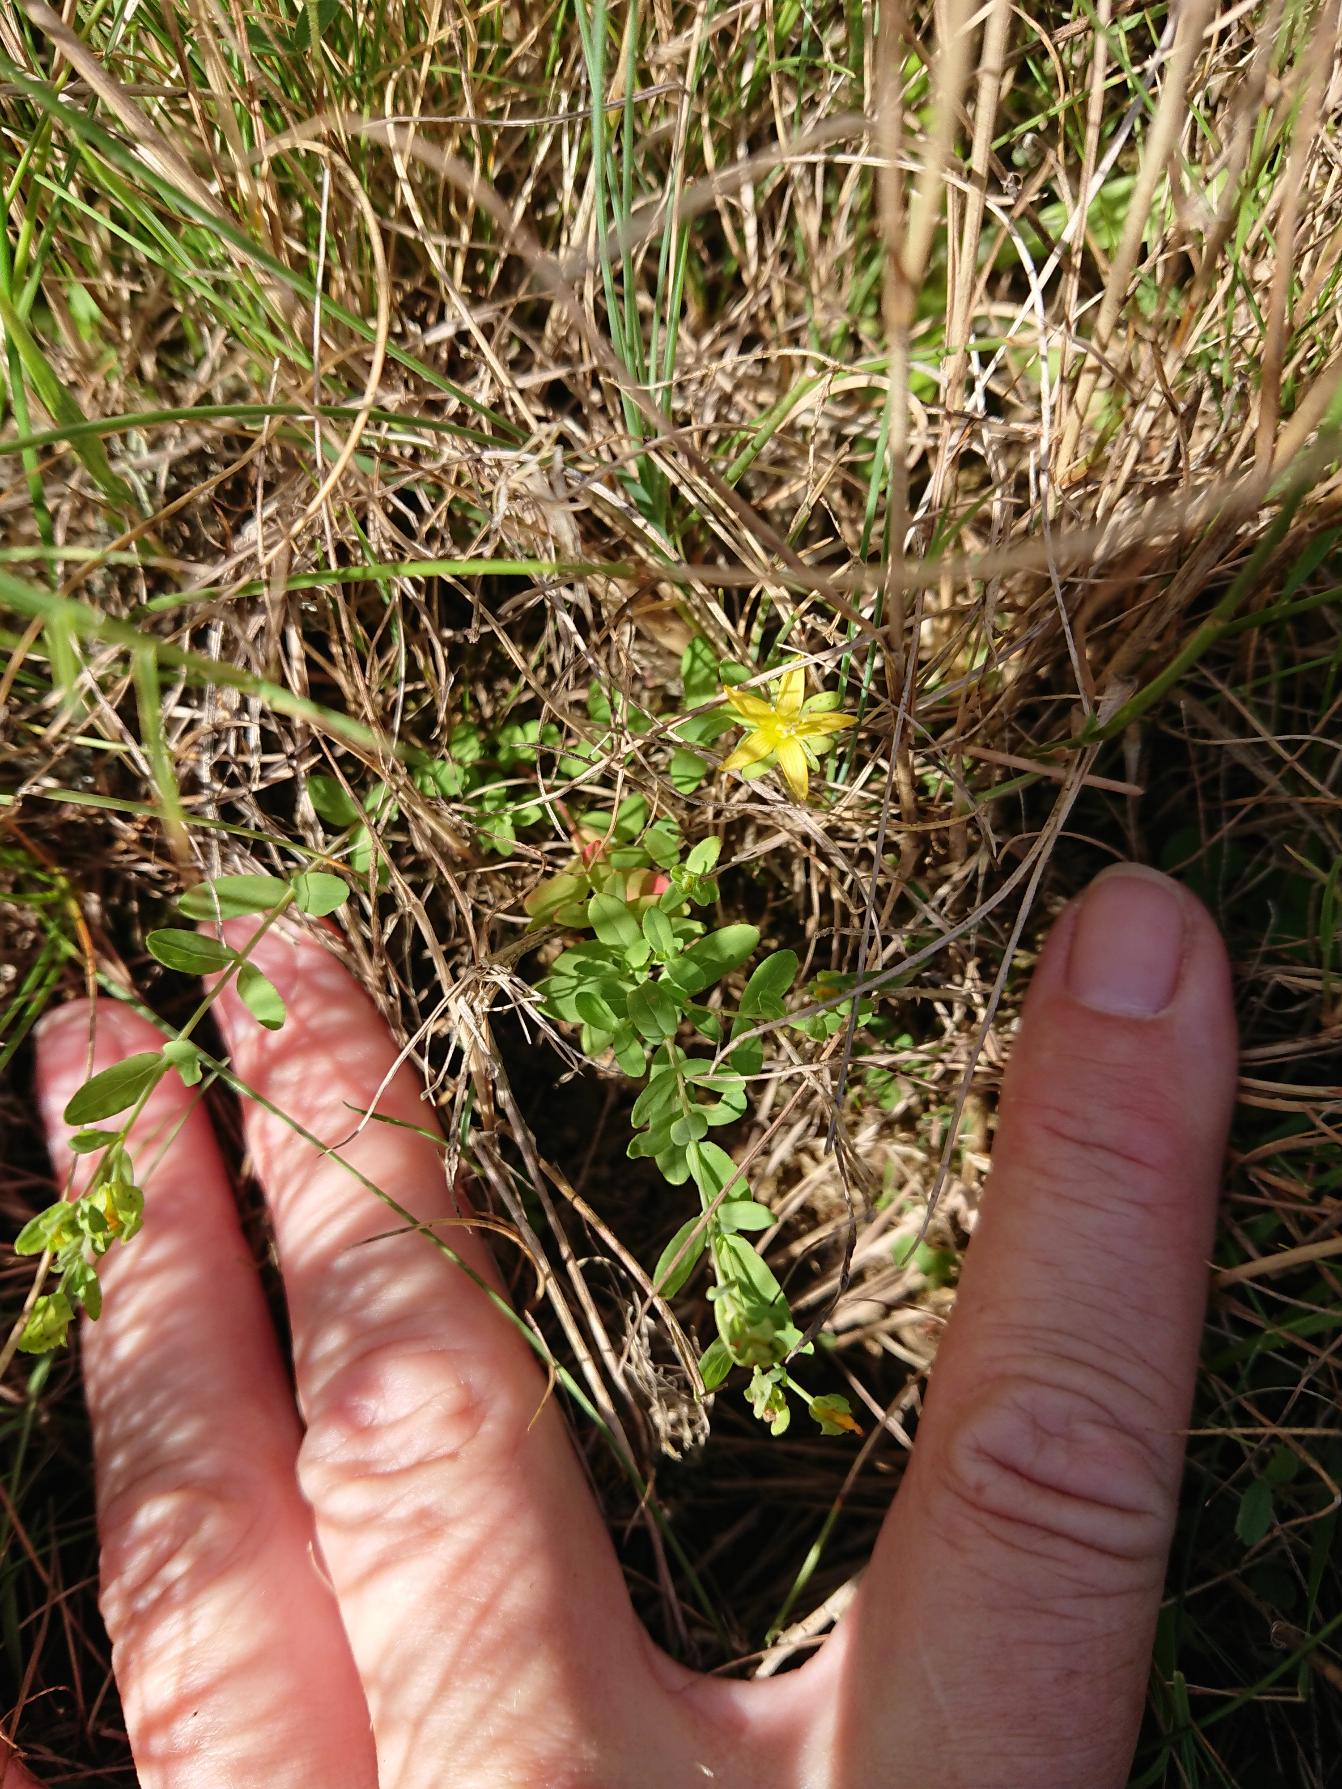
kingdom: Plantae
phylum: Tracheophyta
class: Magnoliopsida
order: Malpighiales
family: Hypericaceae
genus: Hypericum
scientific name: Hypericum humifusum
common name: Dværg-perikon
